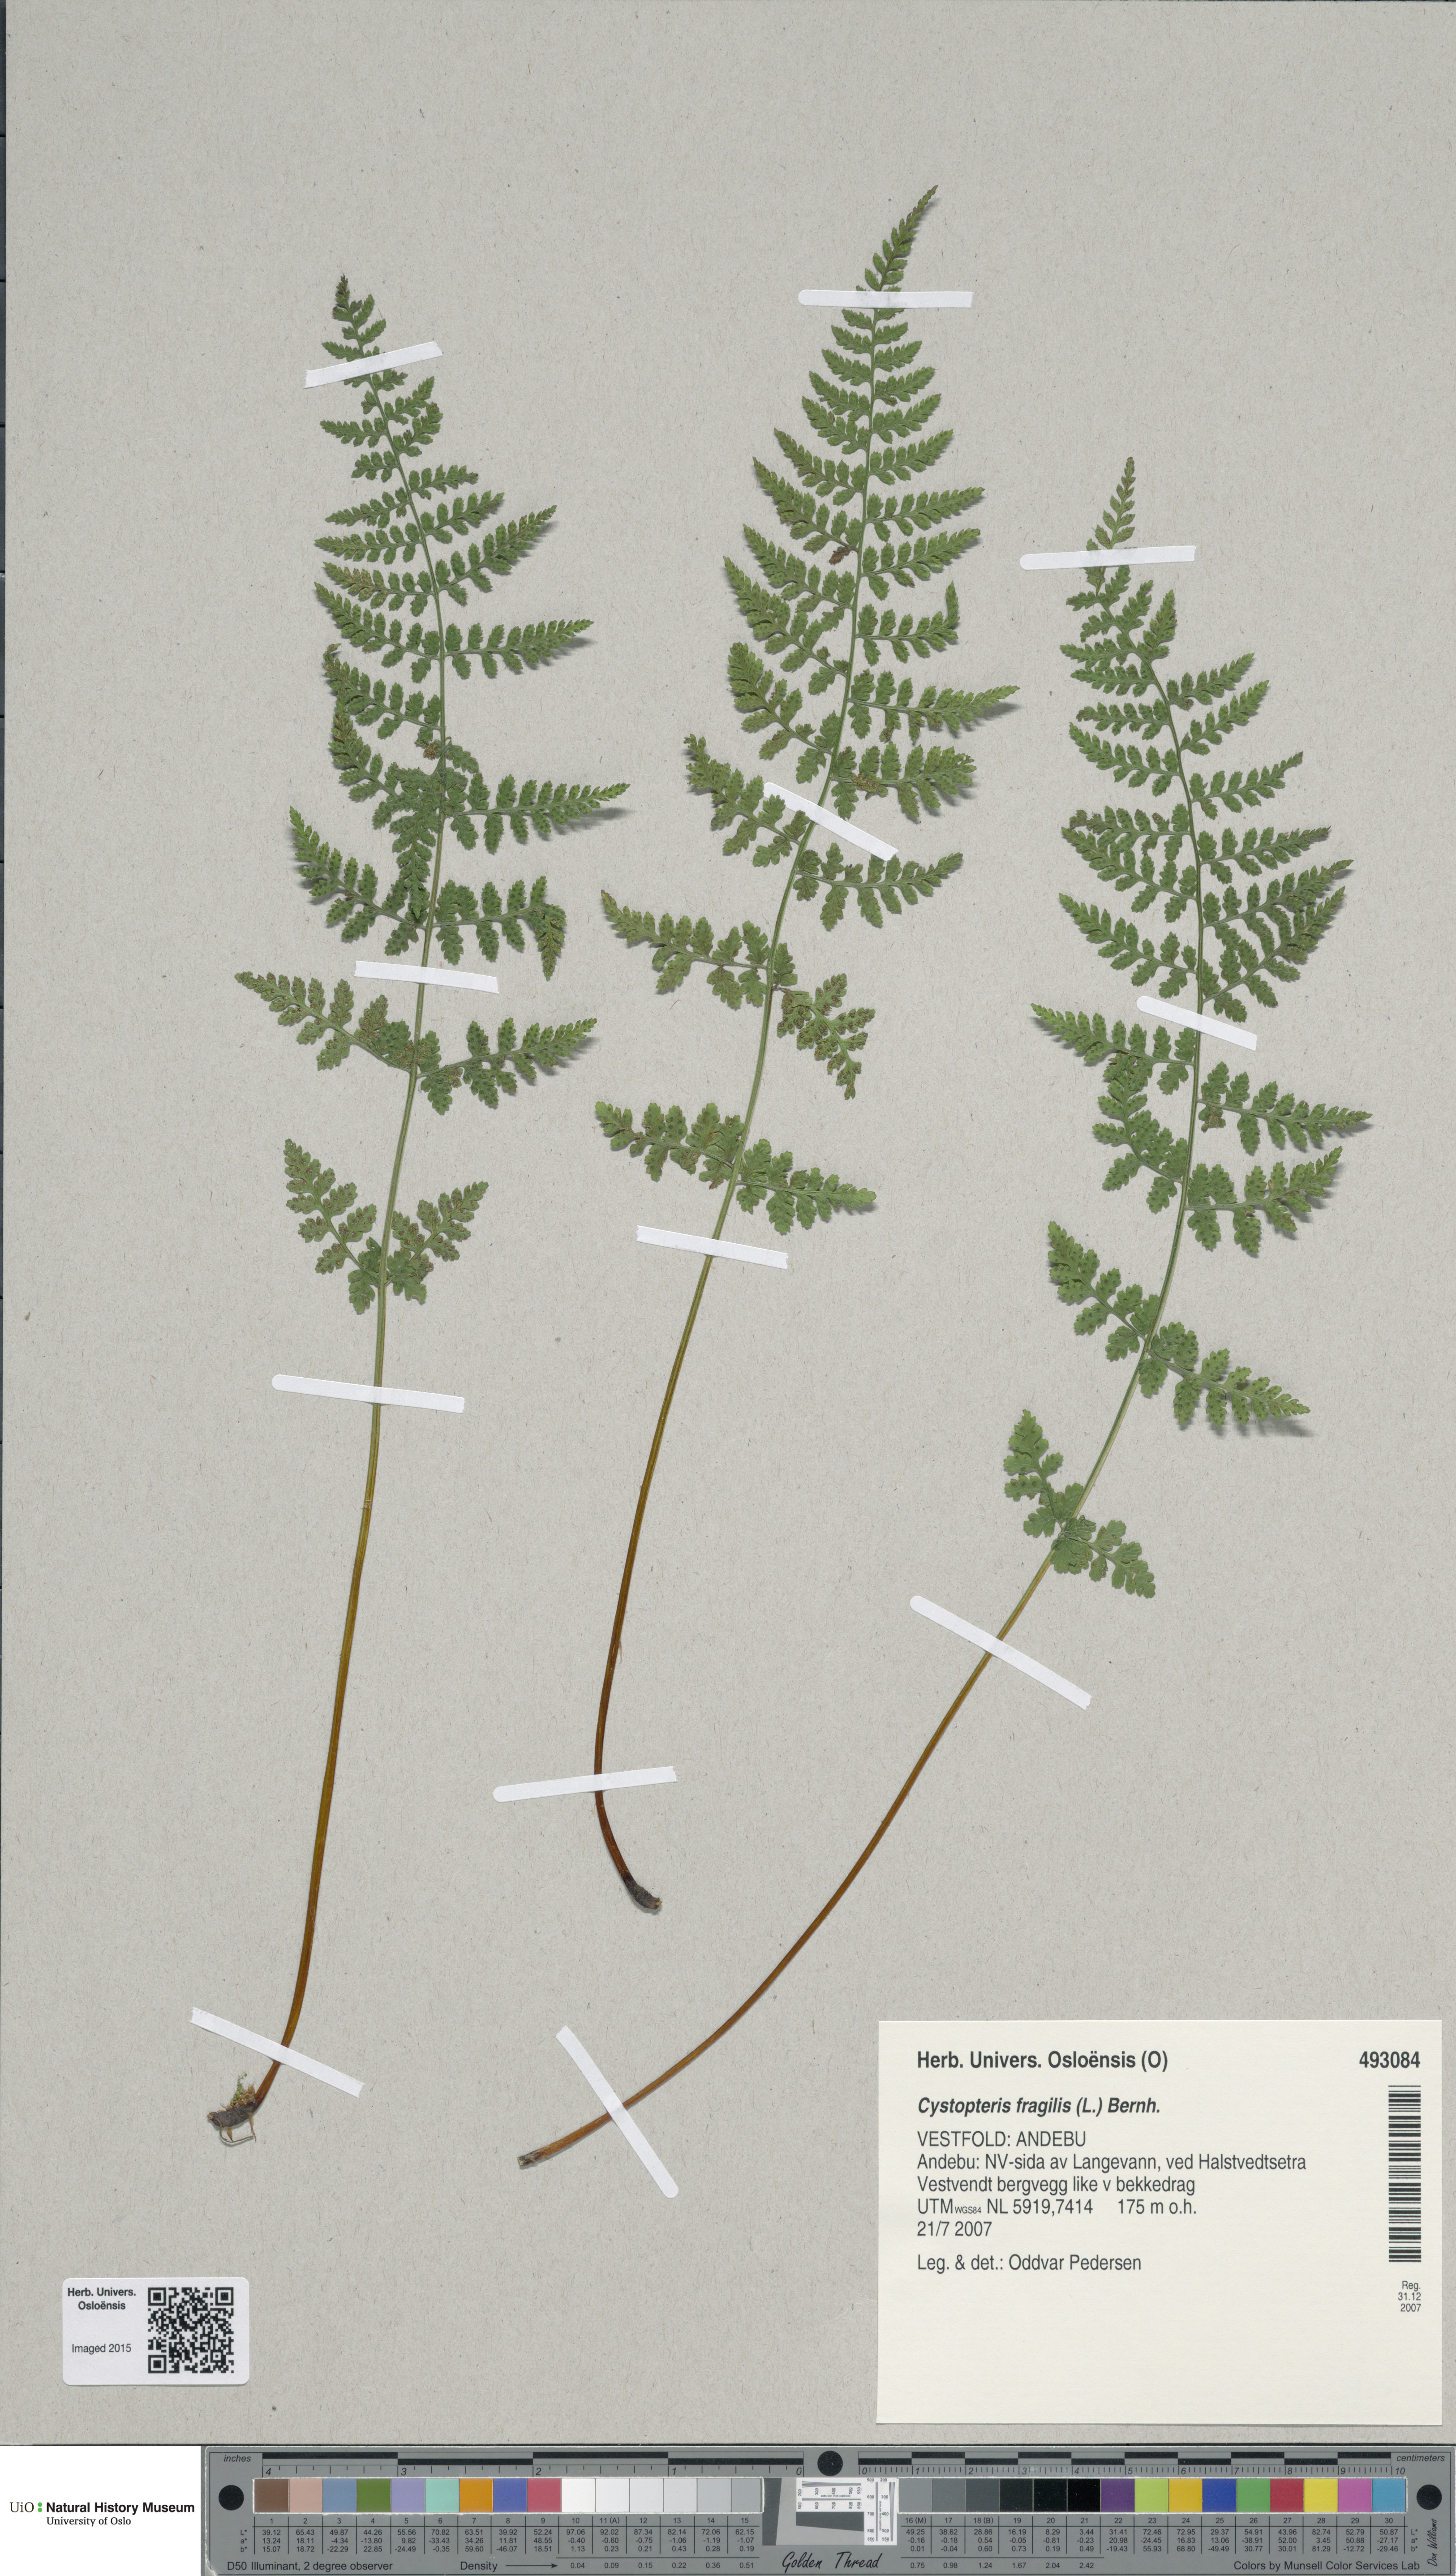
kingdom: Plantae
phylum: Tracheophyta
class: Polypodiopsida
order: Polypodiales
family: Cystopteridaceae
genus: Cystopteris
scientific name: Cystopteris fragilis
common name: Brittle bladder fern
